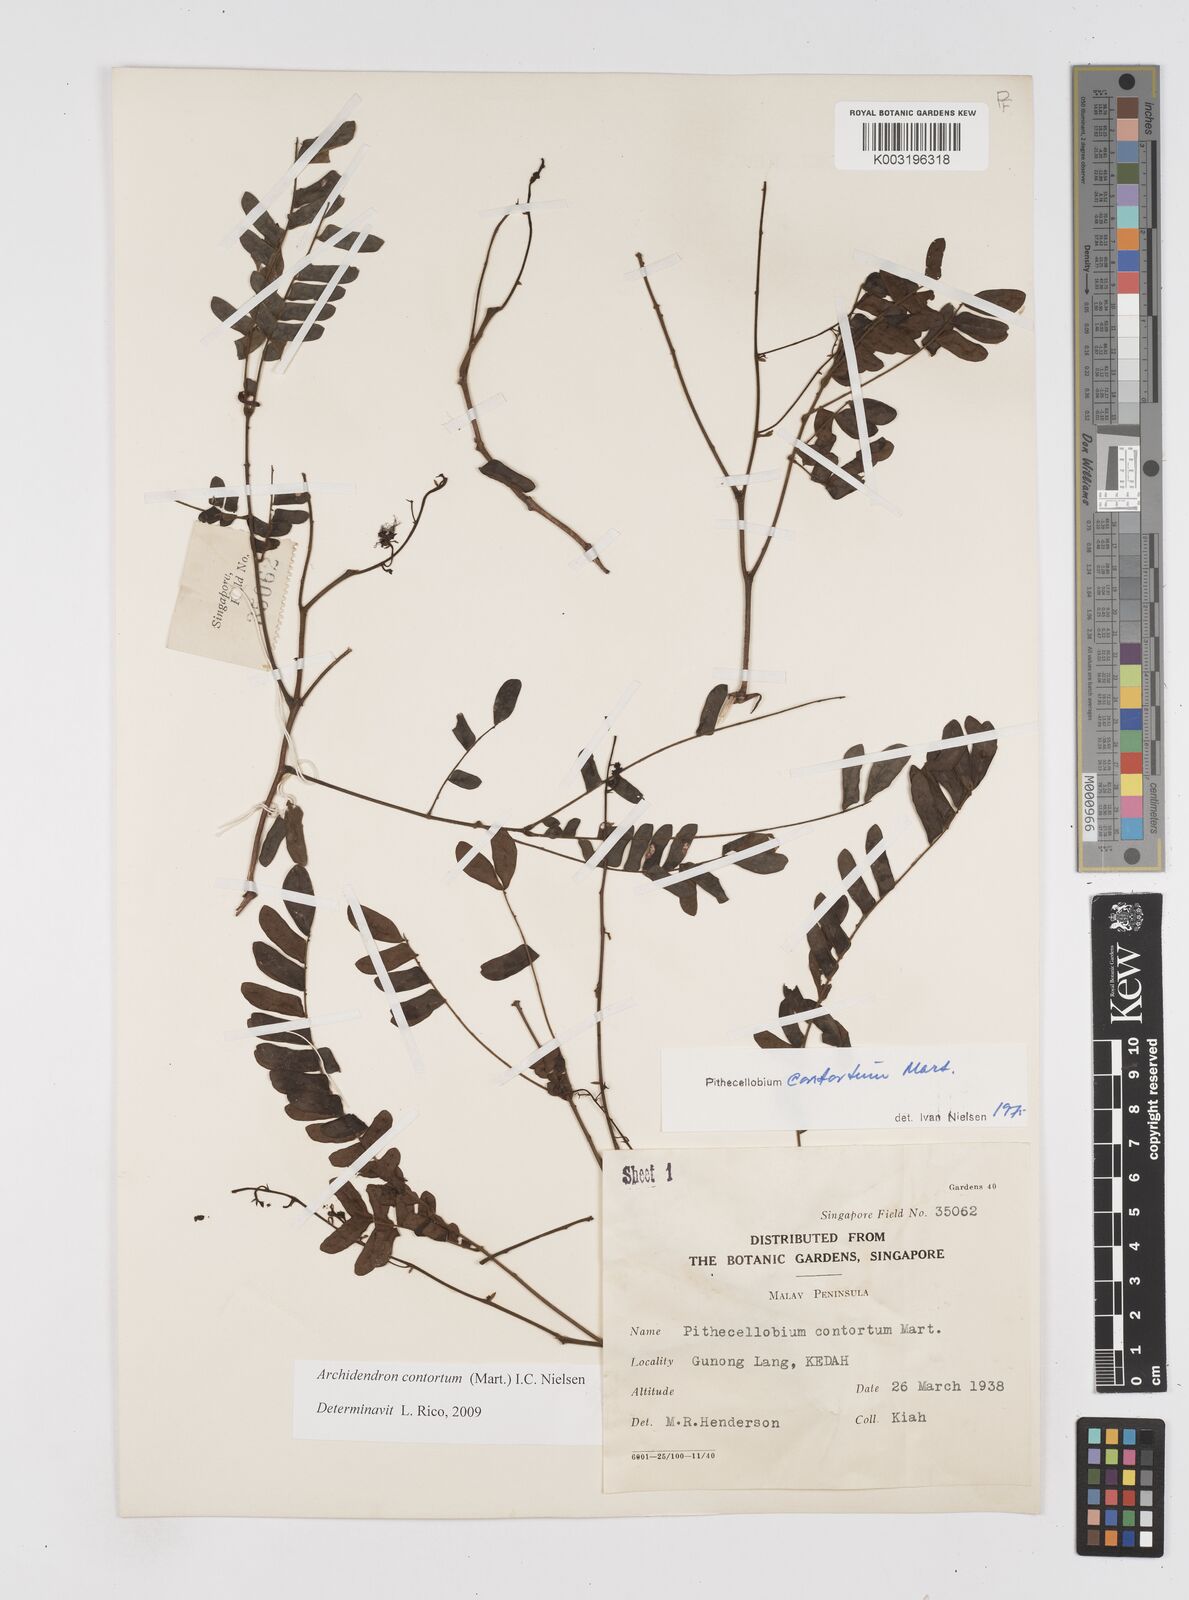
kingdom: Plantae
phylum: Tracheophyta
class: Magnoliopsida
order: Fabales
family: Fabaceae
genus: Archidendron
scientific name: Archidendron contortum
